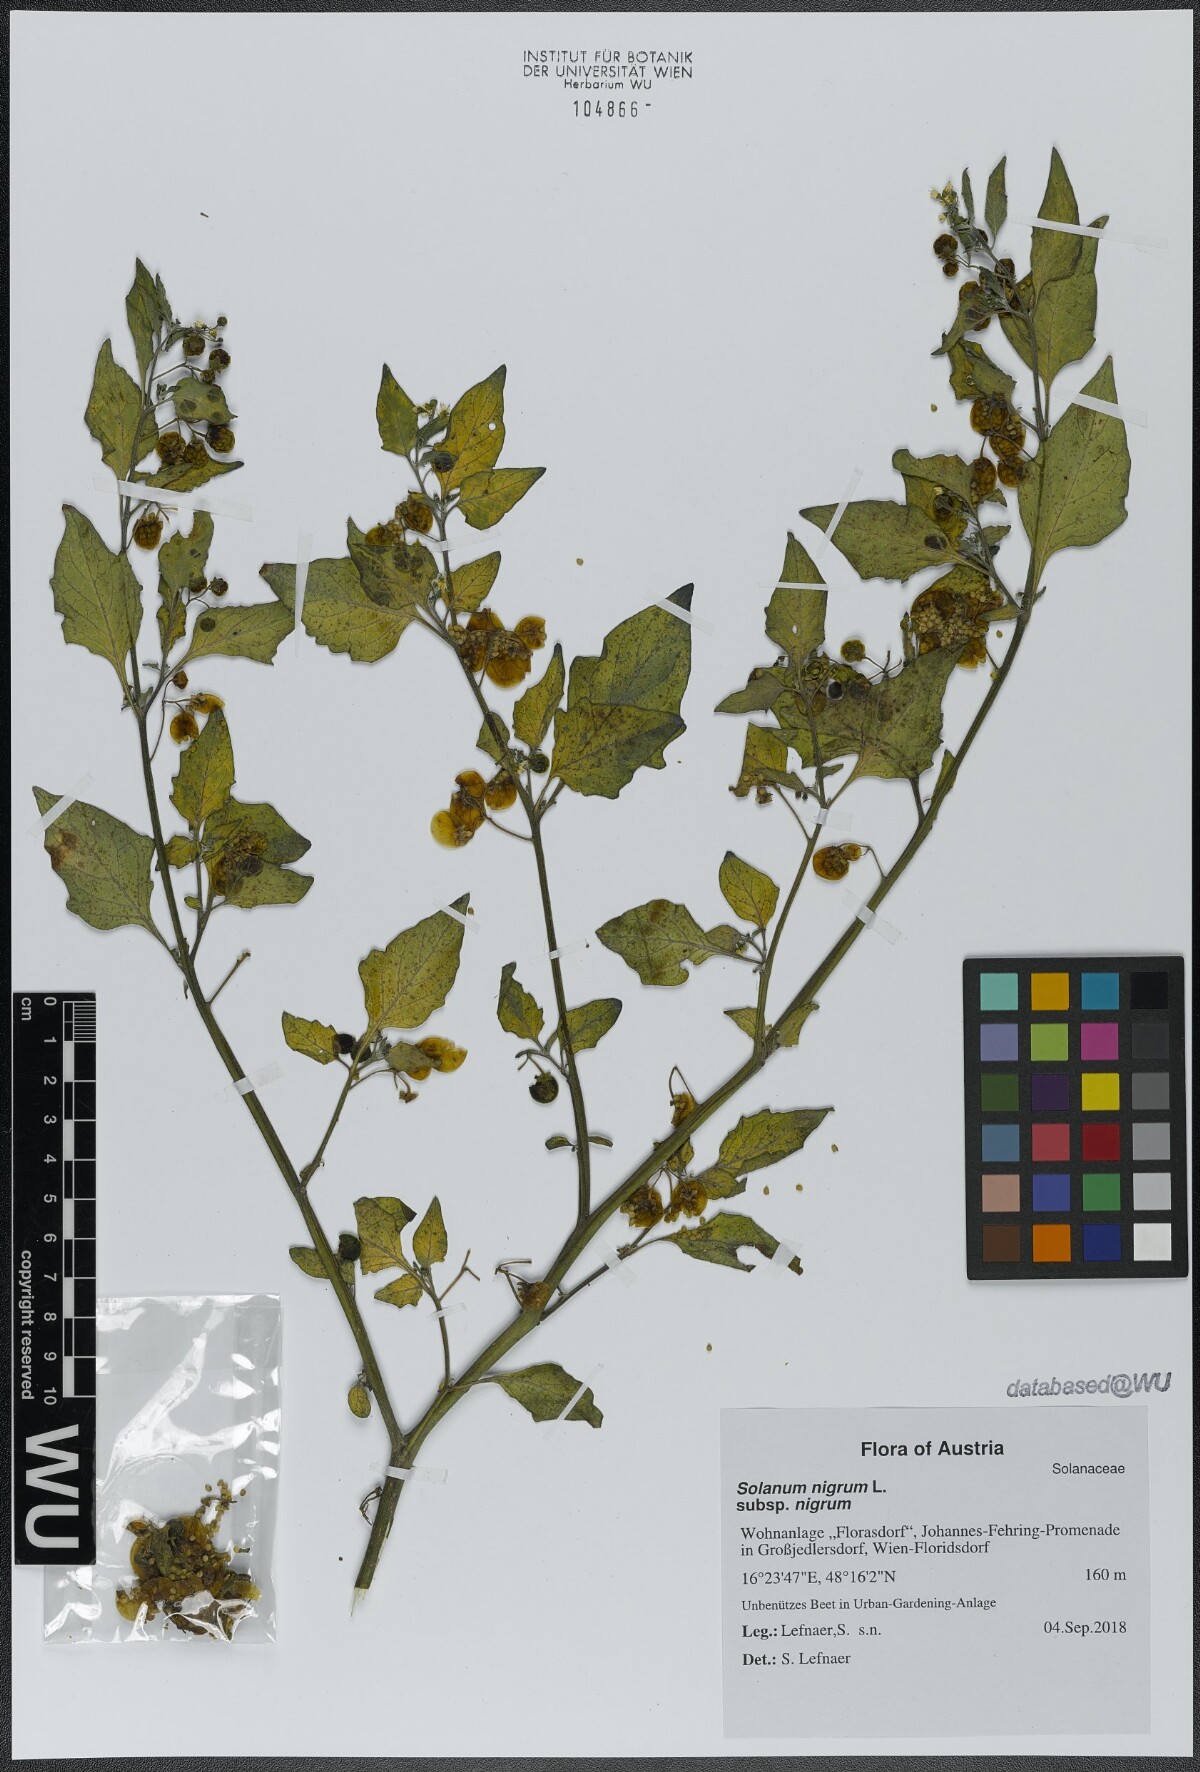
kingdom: Plantae
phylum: Tracheophyta
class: Magnoliopsida
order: Solanales
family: Solanaceae
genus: Solanum
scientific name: Solanum nigrum
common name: Black nightshade
